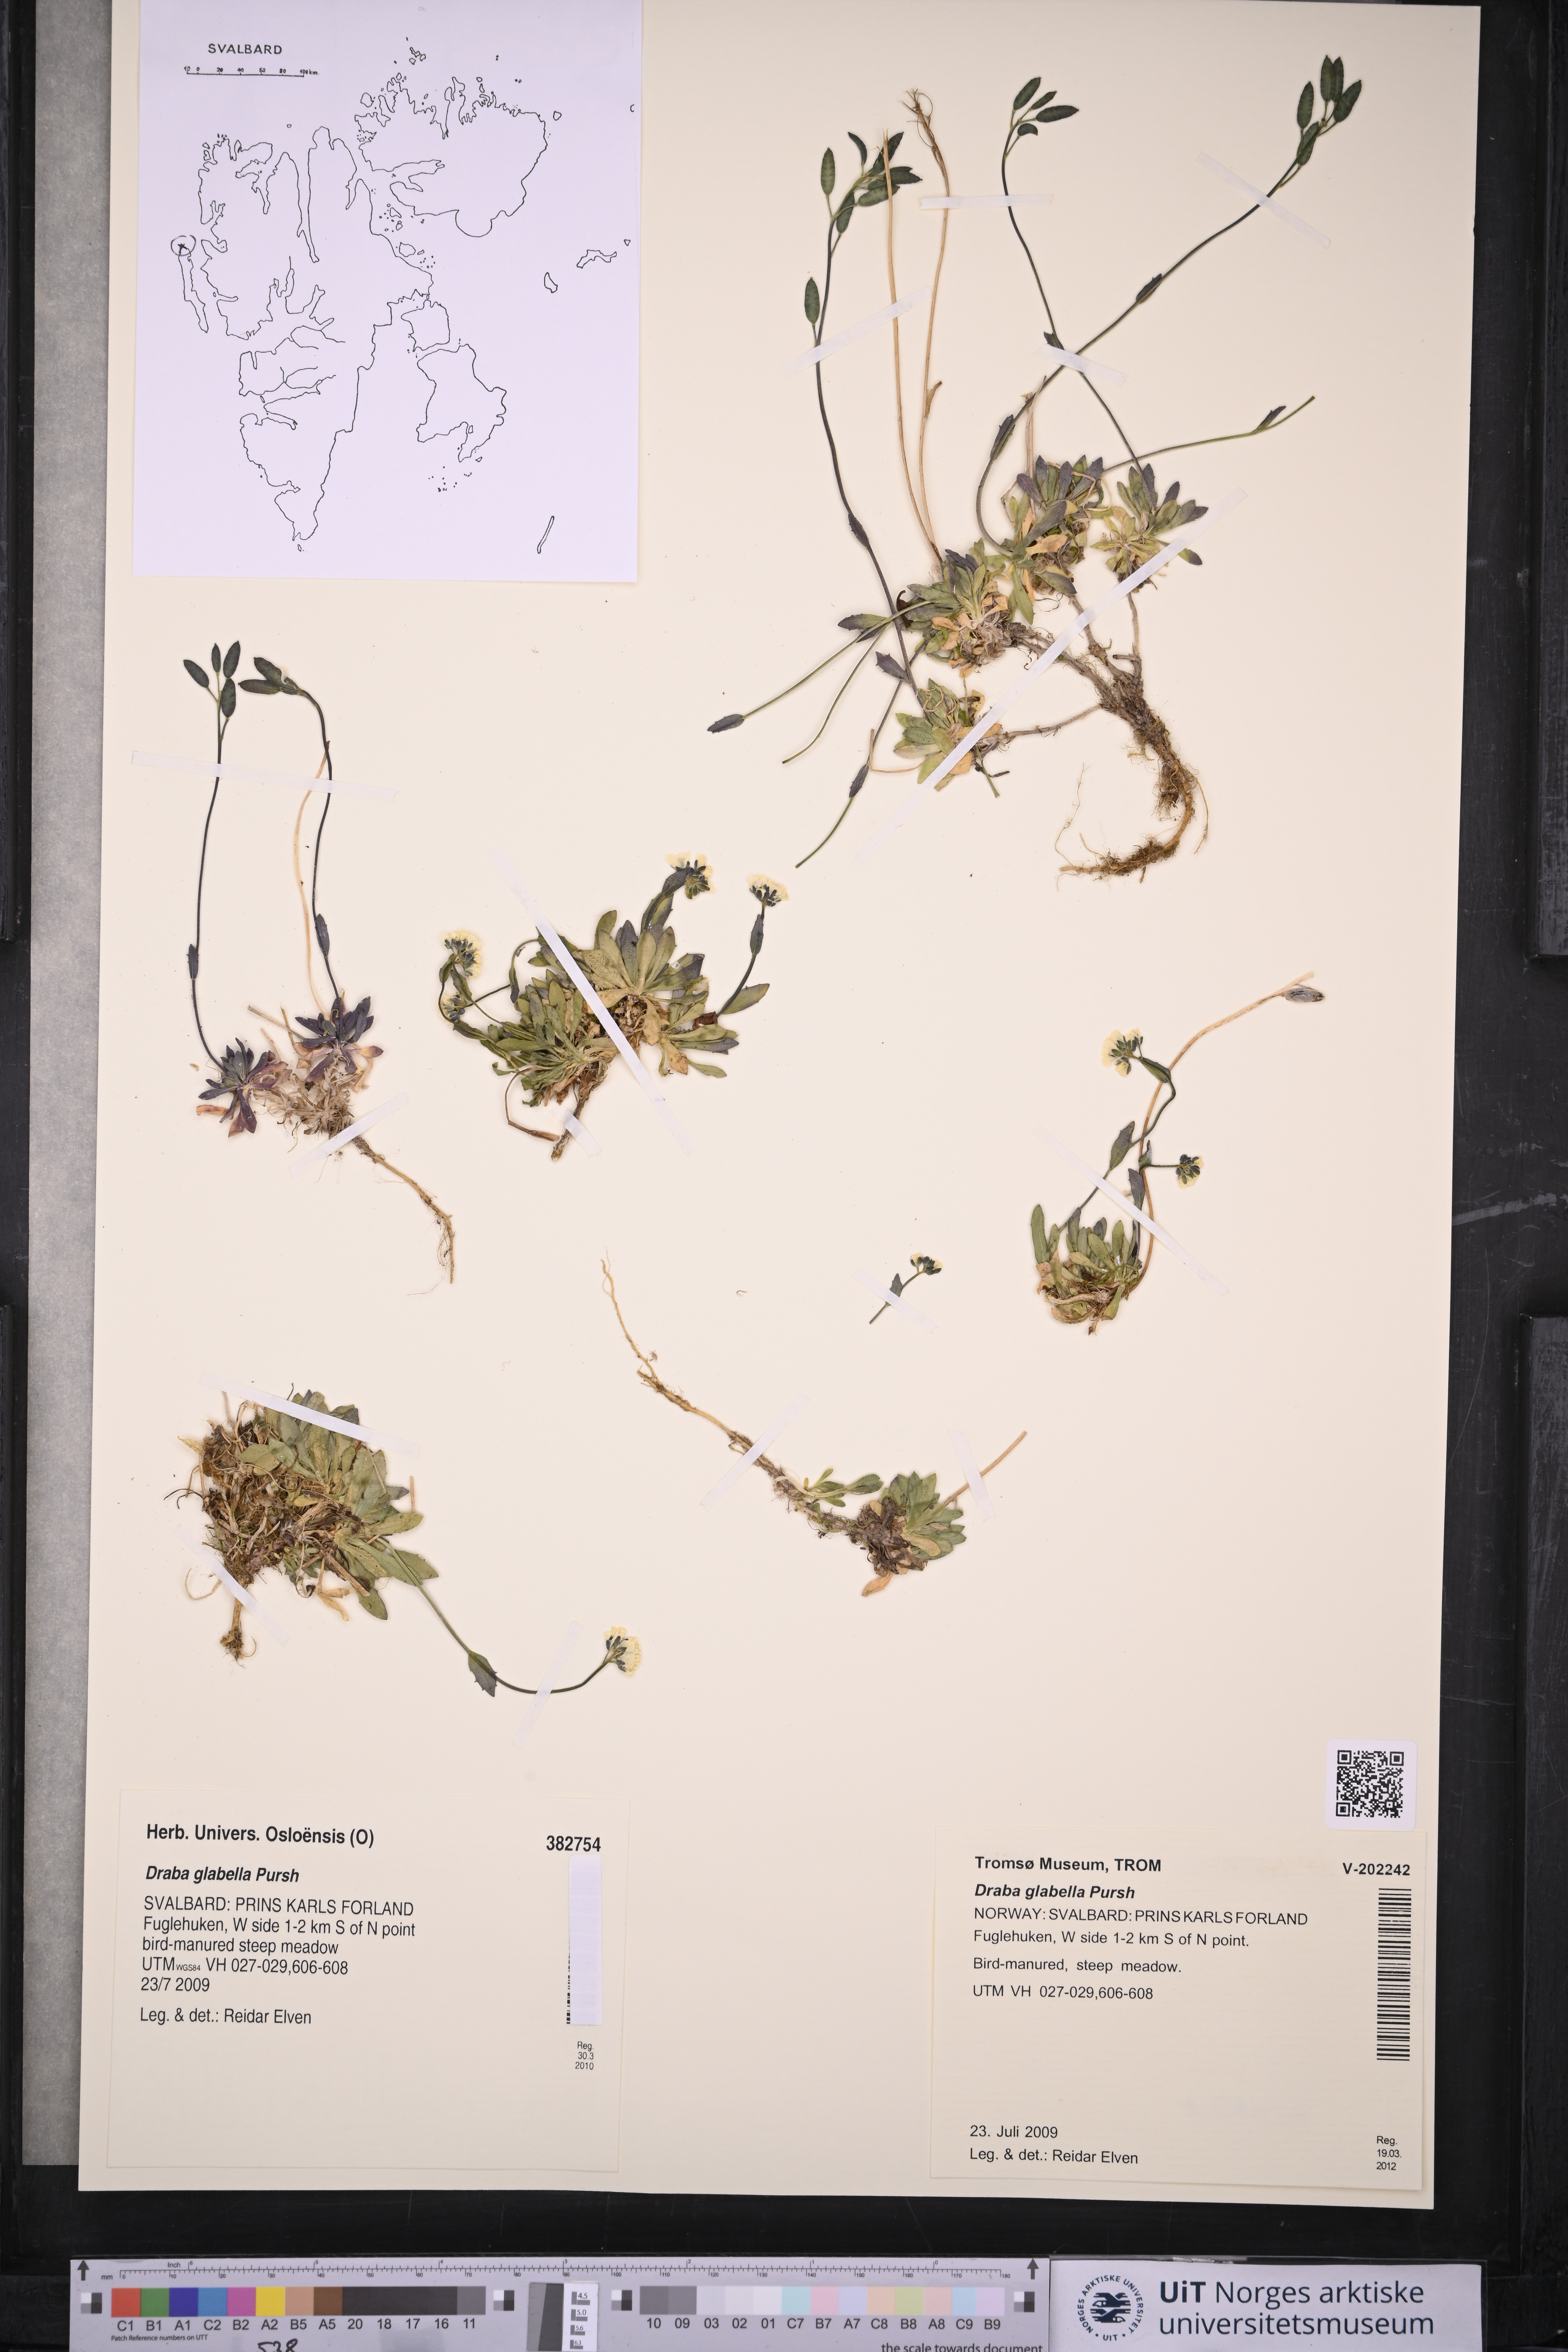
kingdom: Plantae
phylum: Tracheophyta
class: Magnoliopsida
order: Brassicales
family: Brassicaceae
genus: Draba
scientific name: Draba glabella
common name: Glaucous draba
